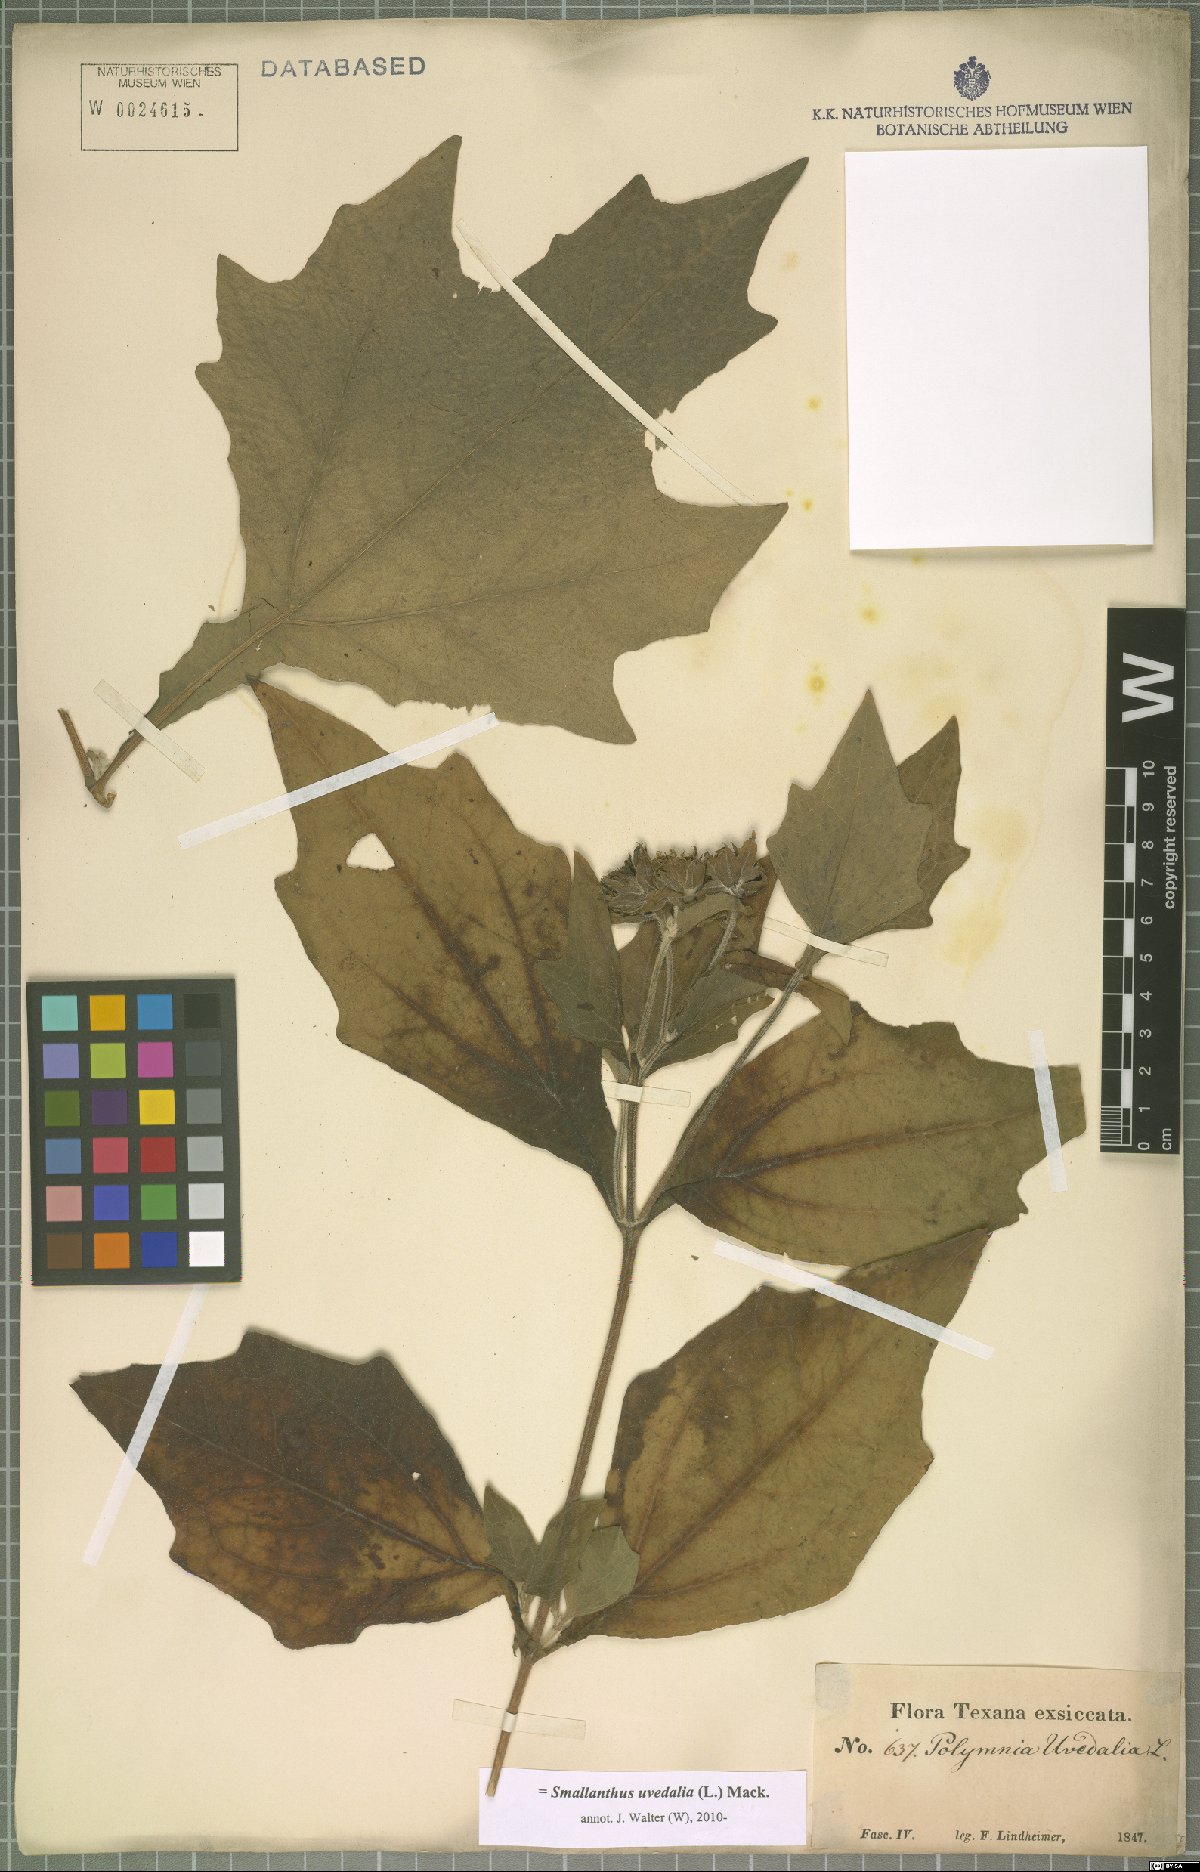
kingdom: Plantae
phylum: Tracheophyta
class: Magnoliopsida
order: Asterales
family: Asteraceae
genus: Smallanthus
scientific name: Smallanthus uvedalia
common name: Bear's-foot
